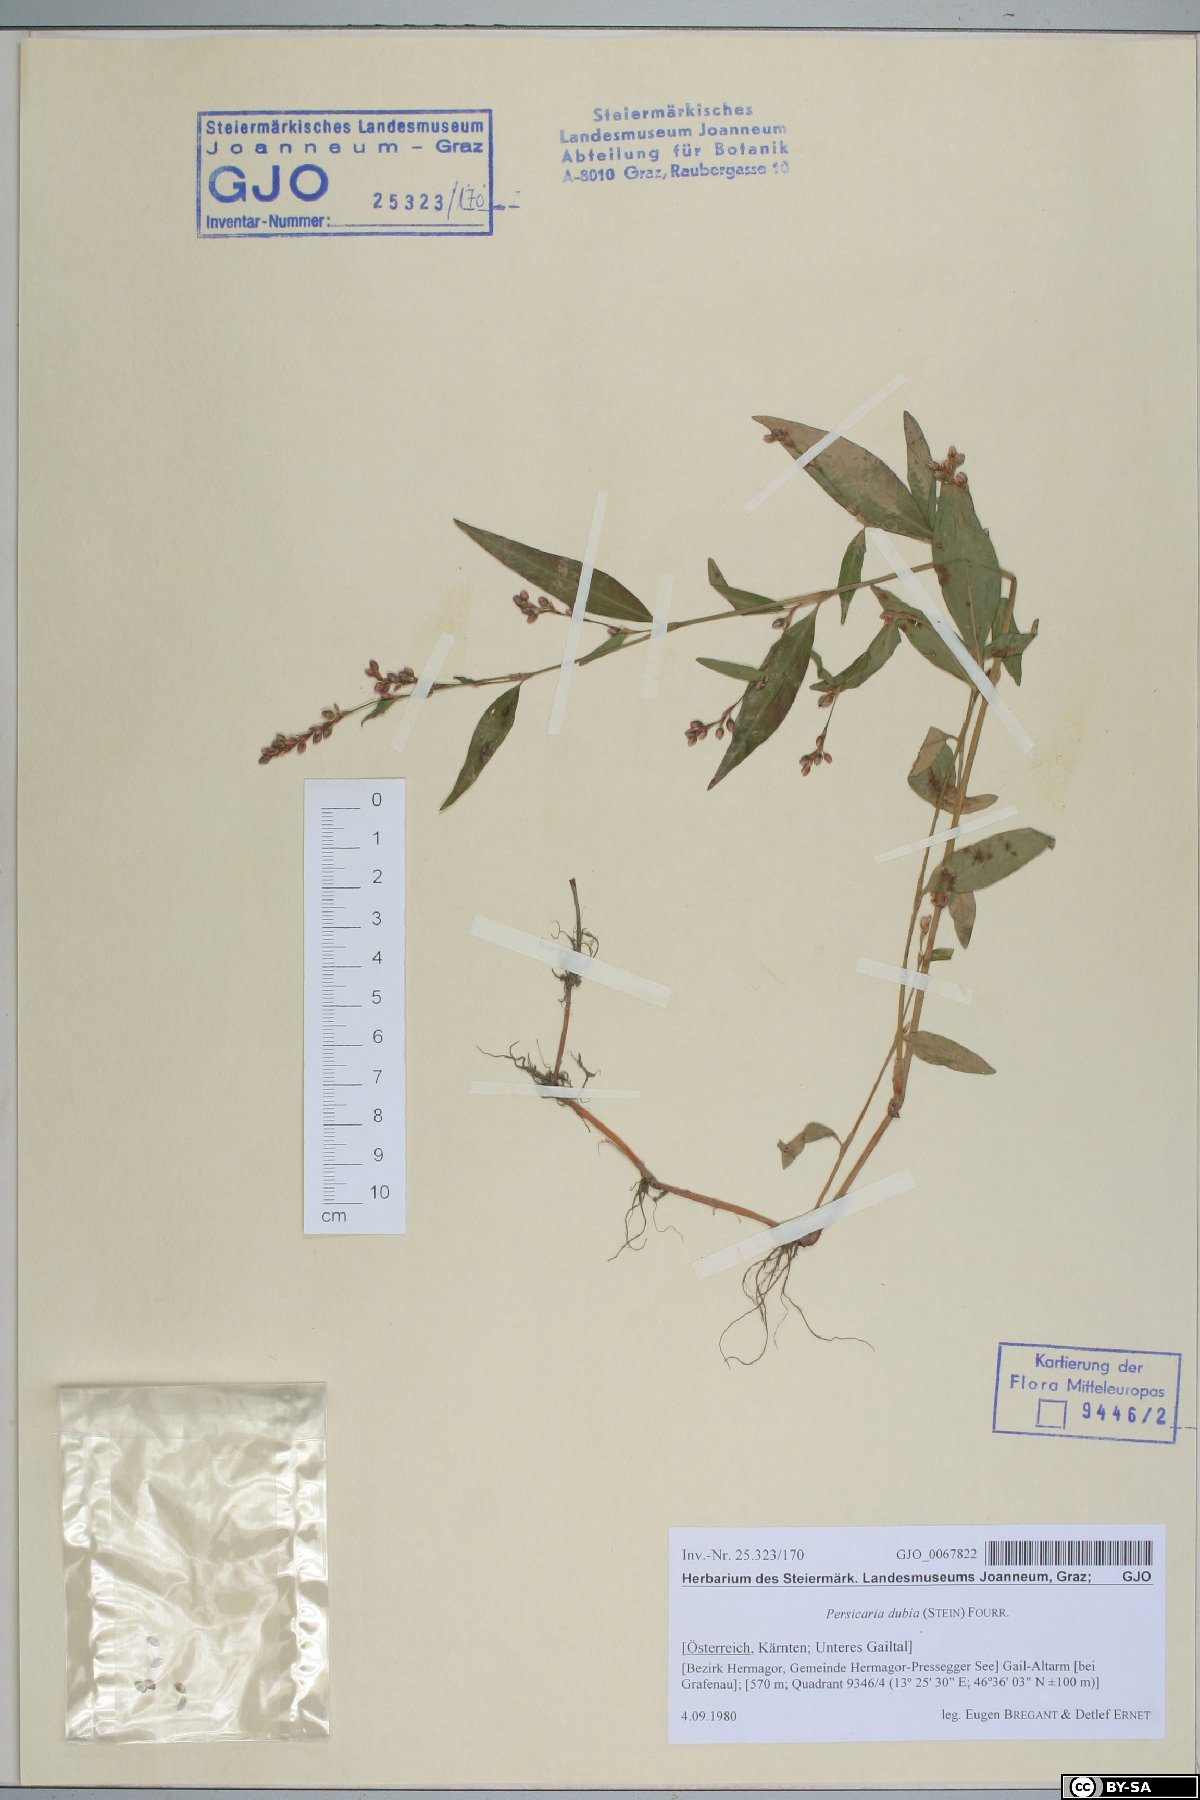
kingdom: Plantae
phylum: Tracheophyta
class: Magnoliopsida
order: Caryophyllales
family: Polygonaceae
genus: Persicaria
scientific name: Persicaria mitis
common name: Tasteless water-pepper
